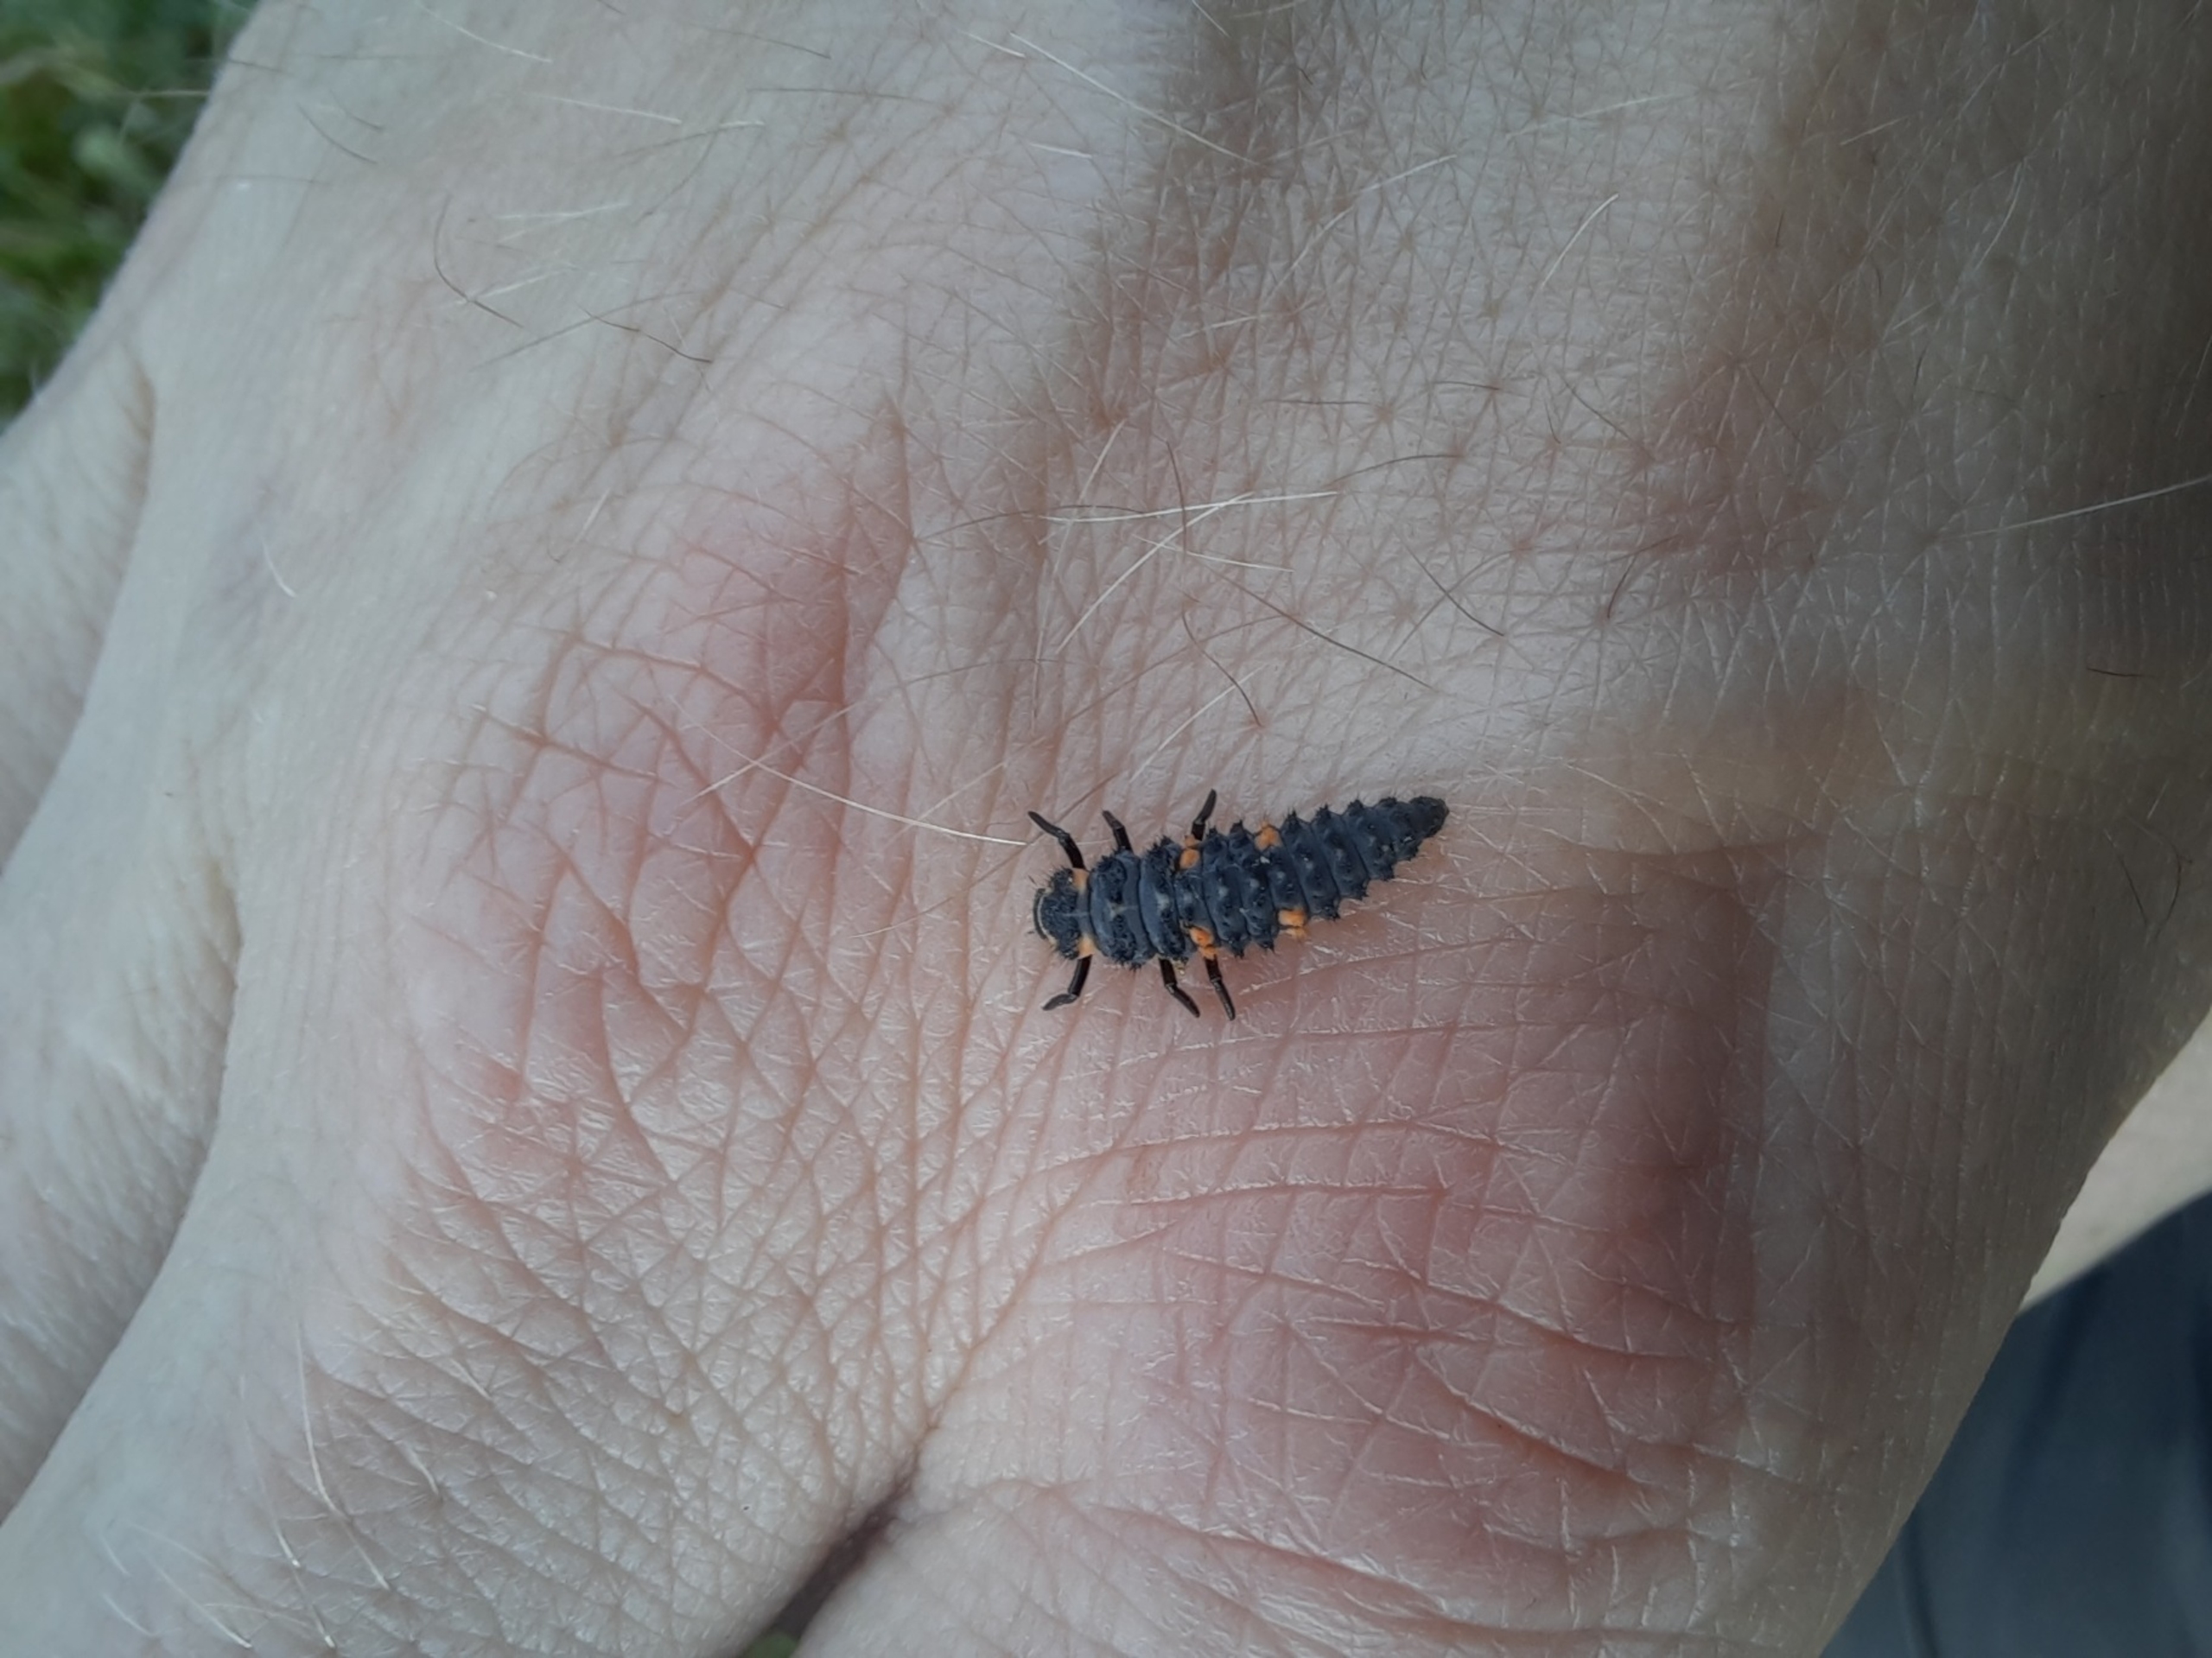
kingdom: Animalia
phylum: Arthropoda
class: Insecta
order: Coleoptera
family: Coccinellidae
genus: Coccinella
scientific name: Coccinella septempunctata
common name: Syvplettet mariehøne
